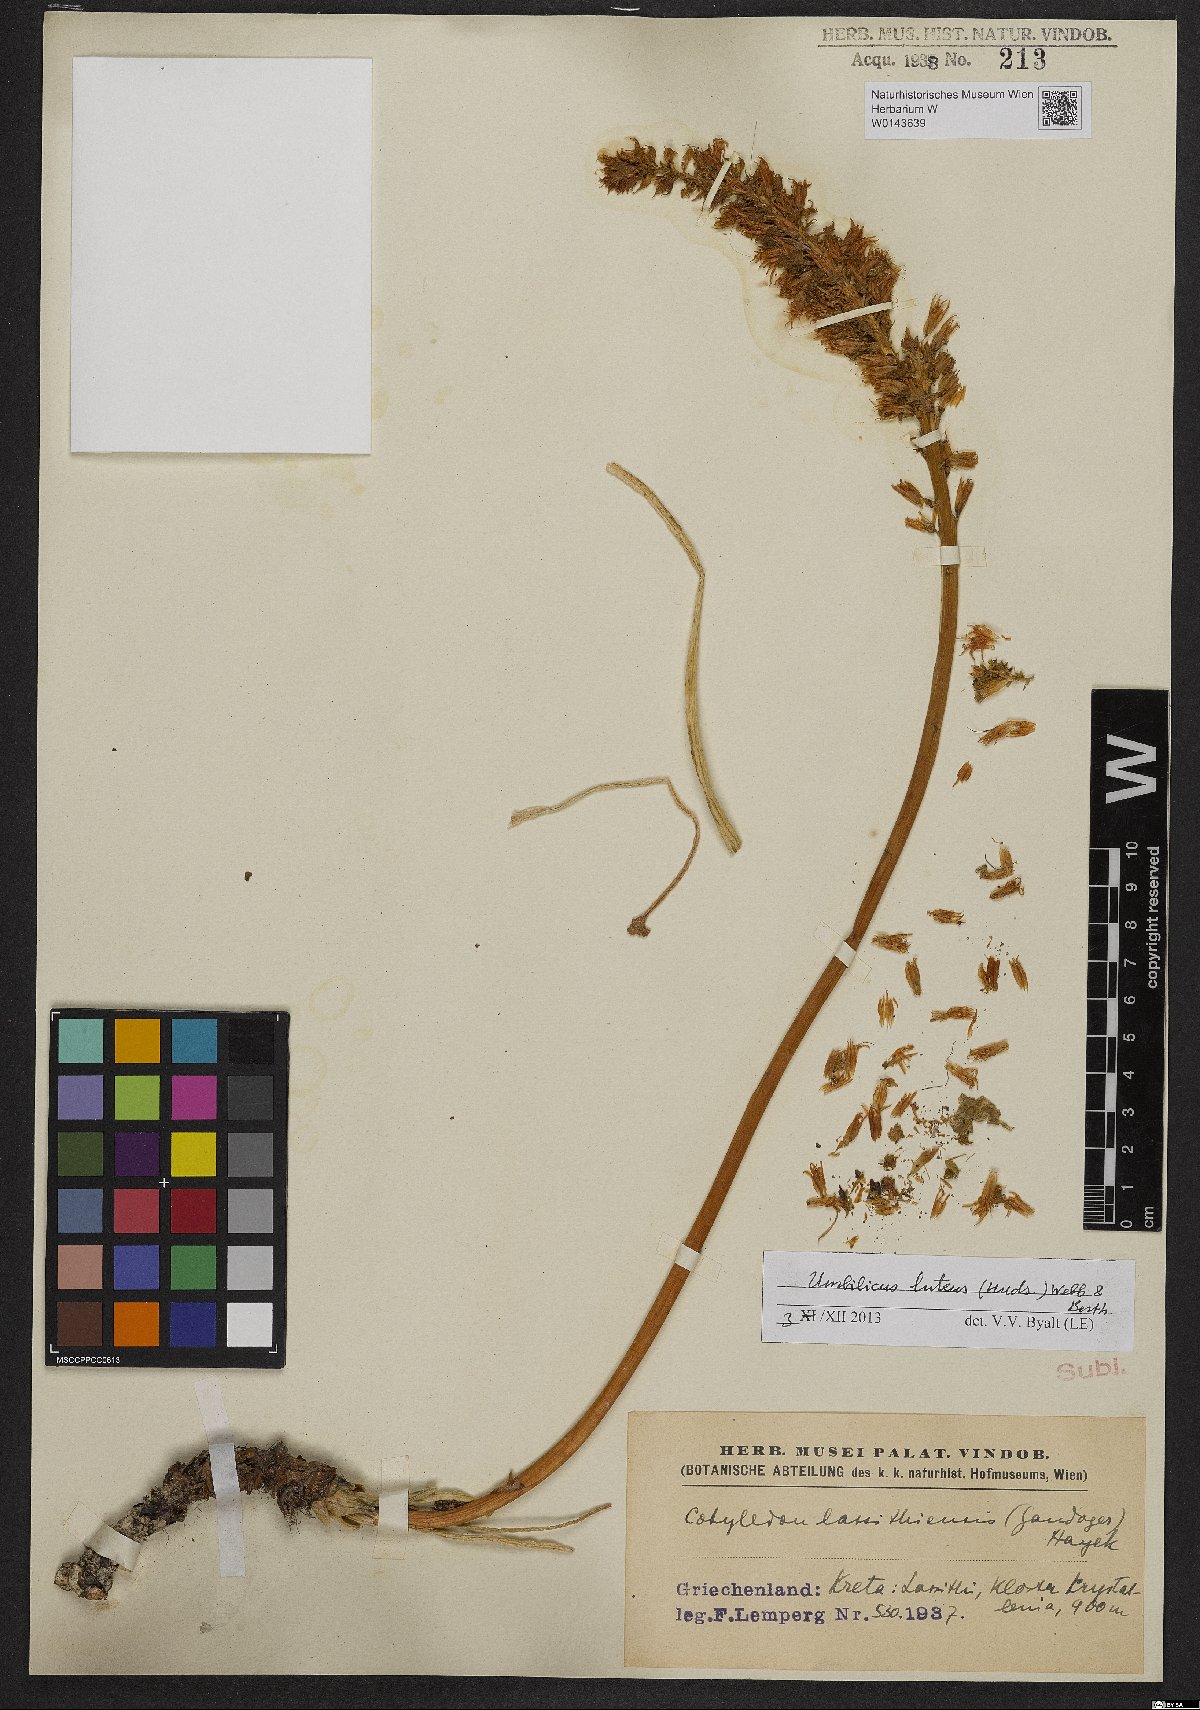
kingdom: Plantae
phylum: Tracheophyta
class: Magnoliopsida
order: Saxifragales
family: Crassulaceae
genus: Umbilicus
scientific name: Umbilicus luteus
